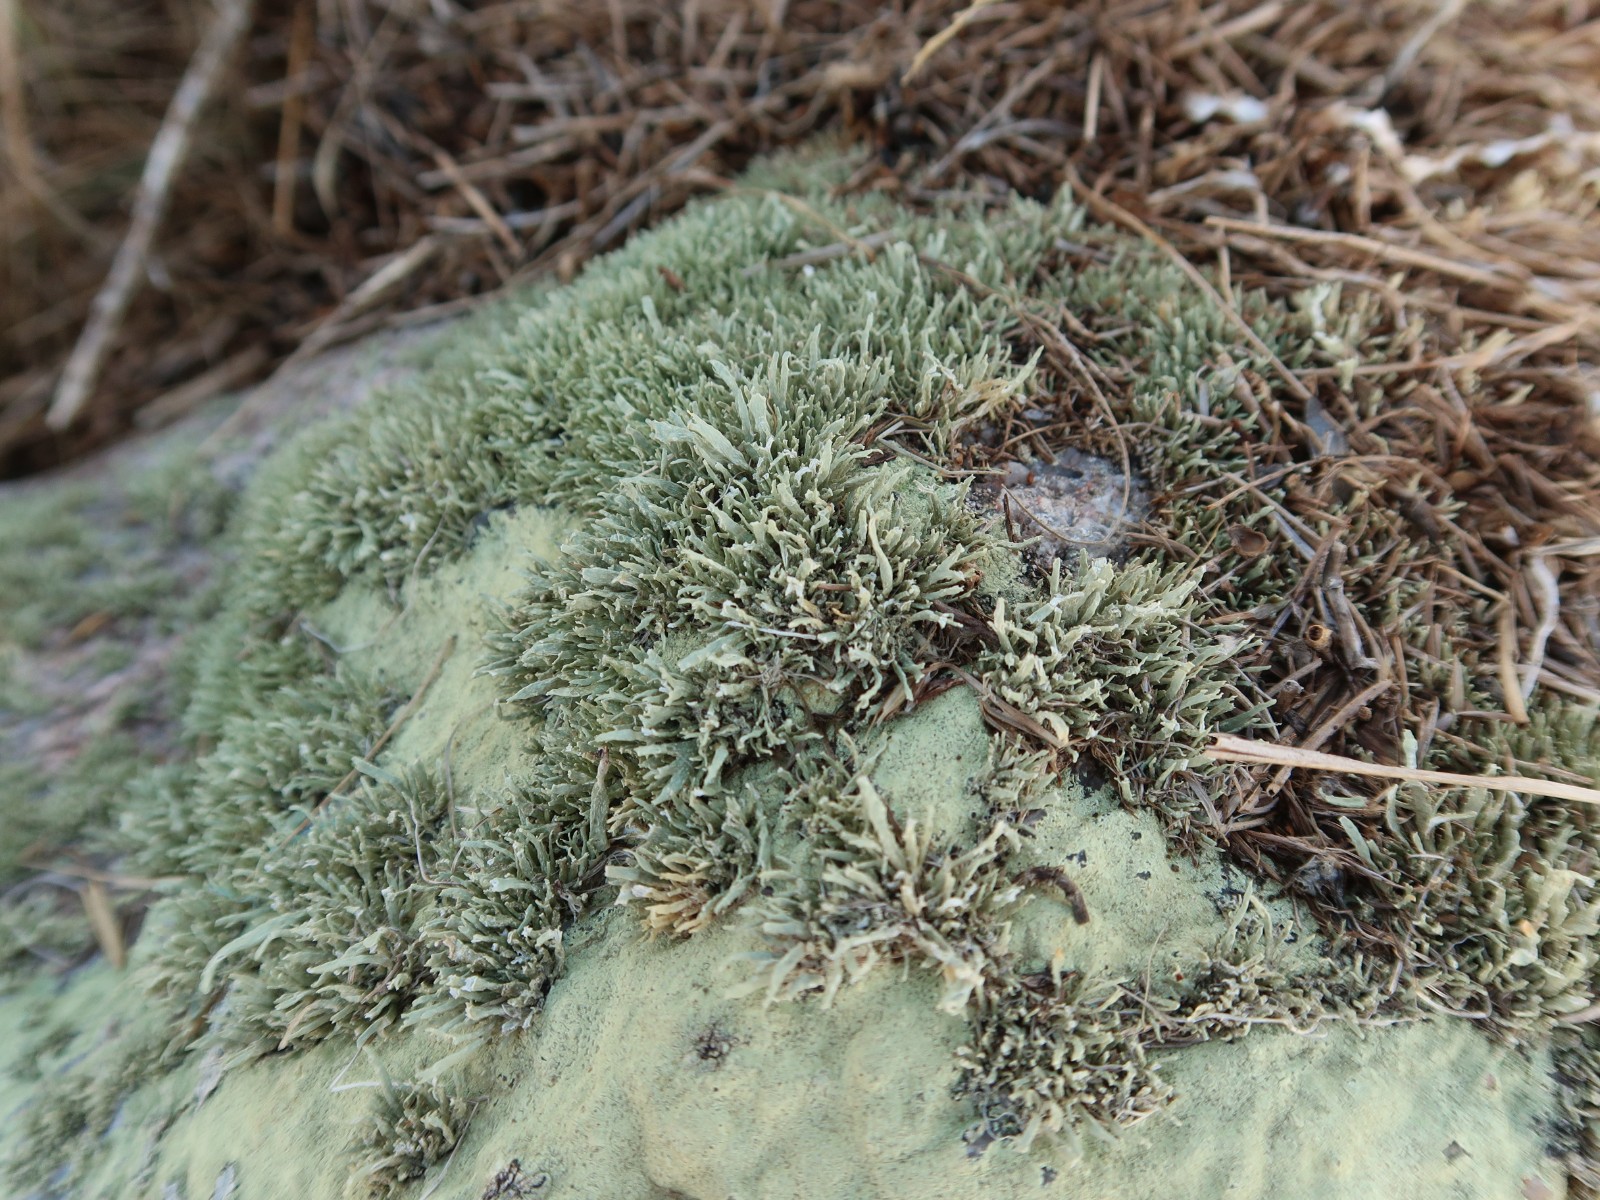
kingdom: Fungi
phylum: Ascomycota
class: Lecanoromycetes
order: Lecanorales
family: Ramalinaceae
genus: Ramalina
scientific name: Ramalina siliquosa
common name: klippe-grenlav
